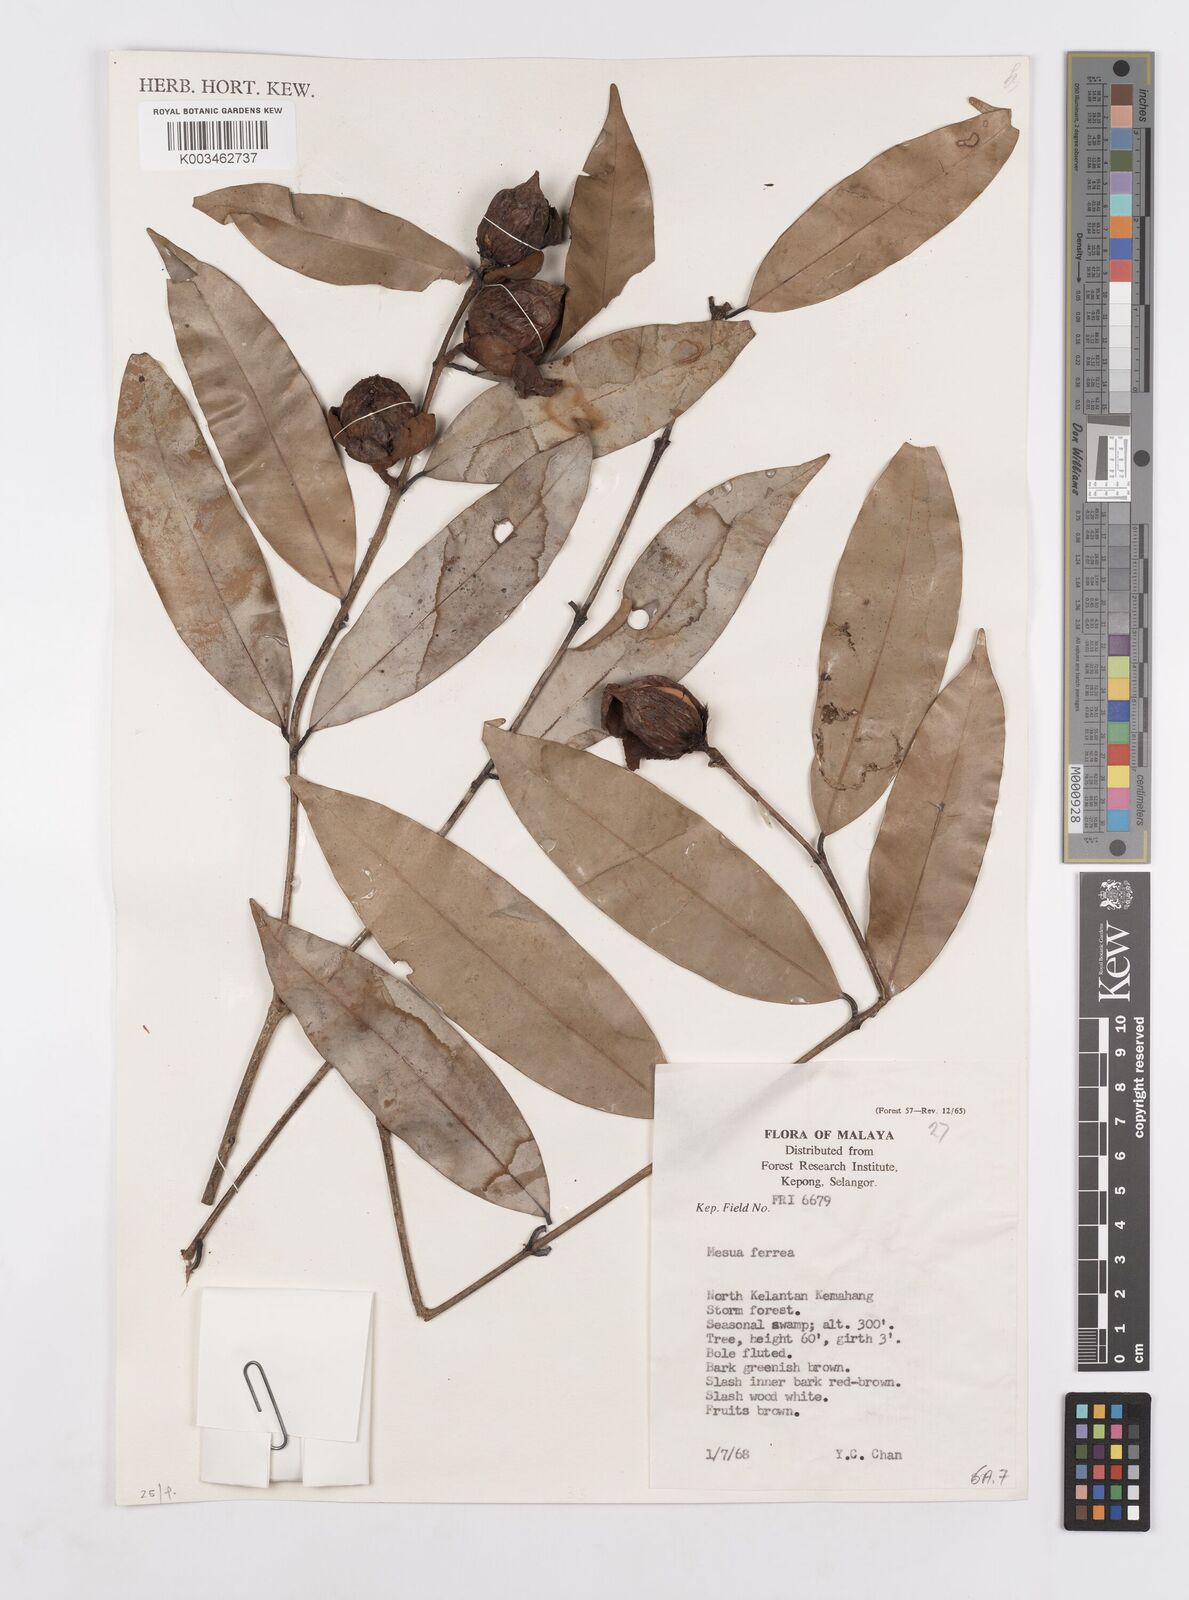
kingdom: Plantae
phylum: Tracheophyta
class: Magnoliopsida
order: Malpighiales
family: Calophyllaceae
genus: Mesua
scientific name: Mesua ferrea
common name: Mesua
